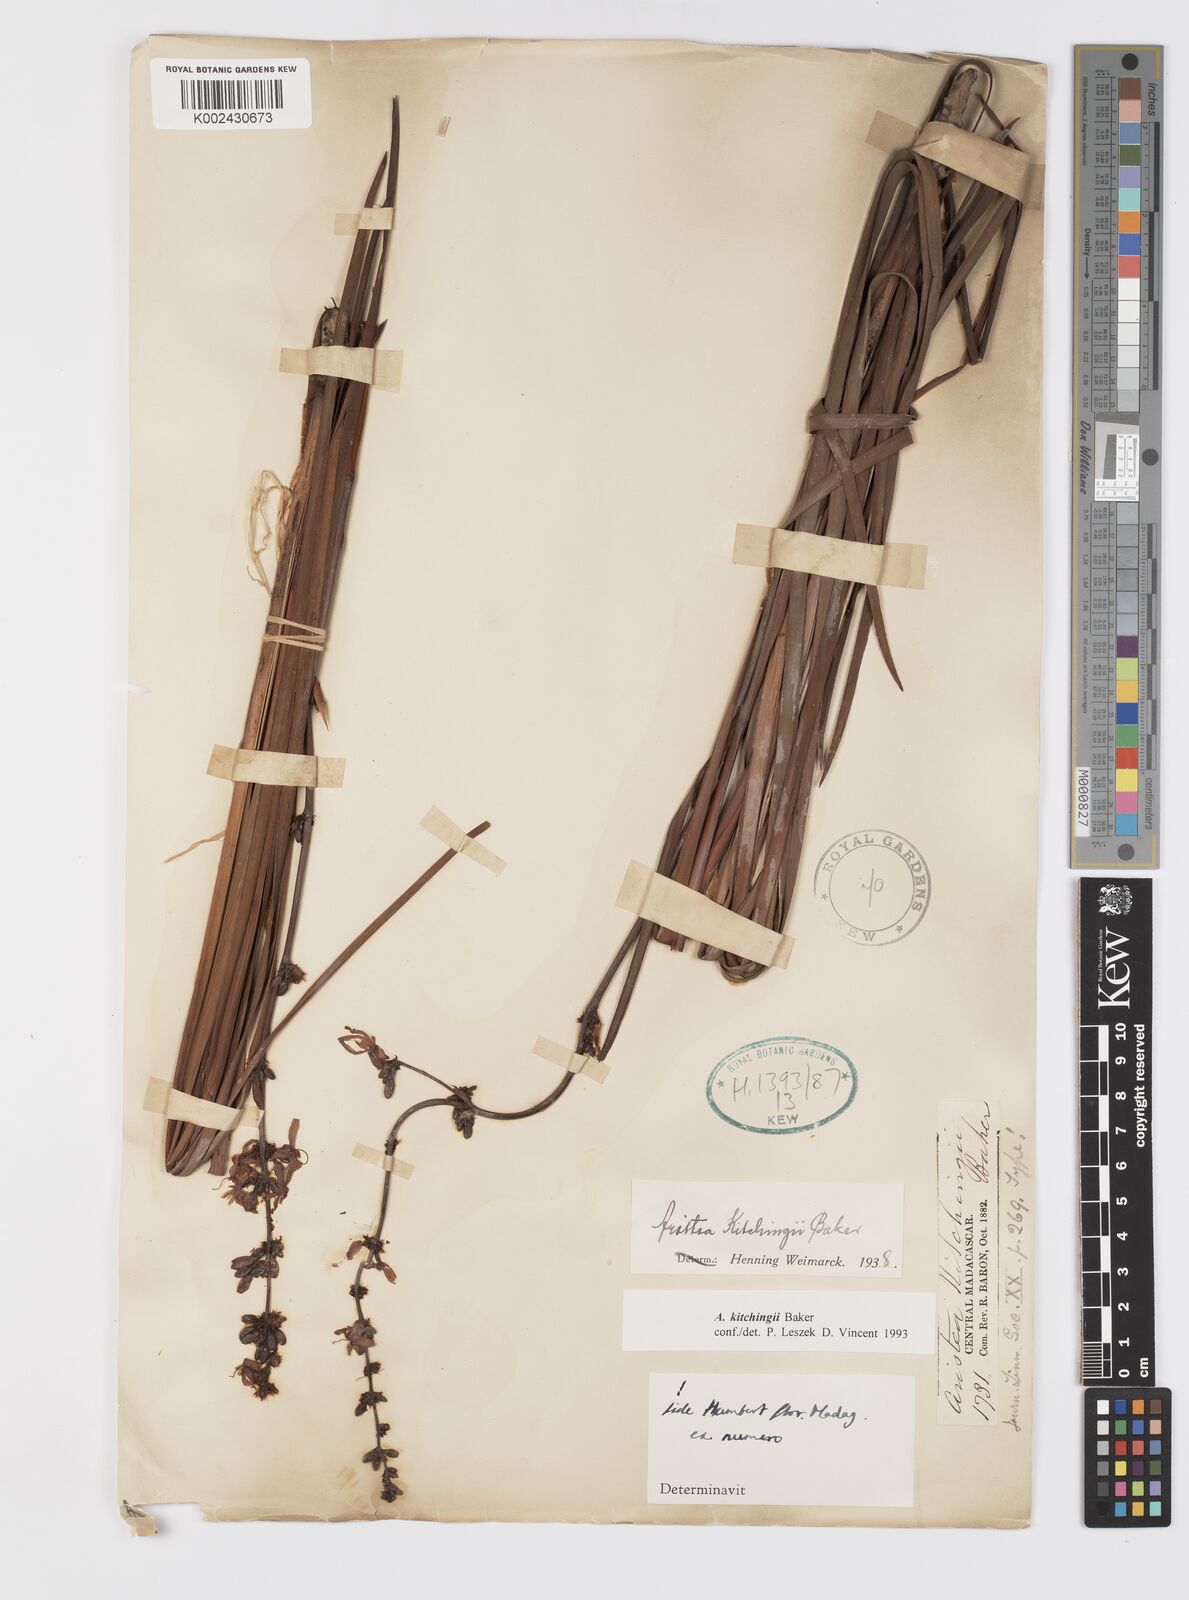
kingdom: Plantae
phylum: Tracheophyta
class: Liliopsida
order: Asparagales
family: Iridaceae
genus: Aristea
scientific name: Aristea kitchingii
